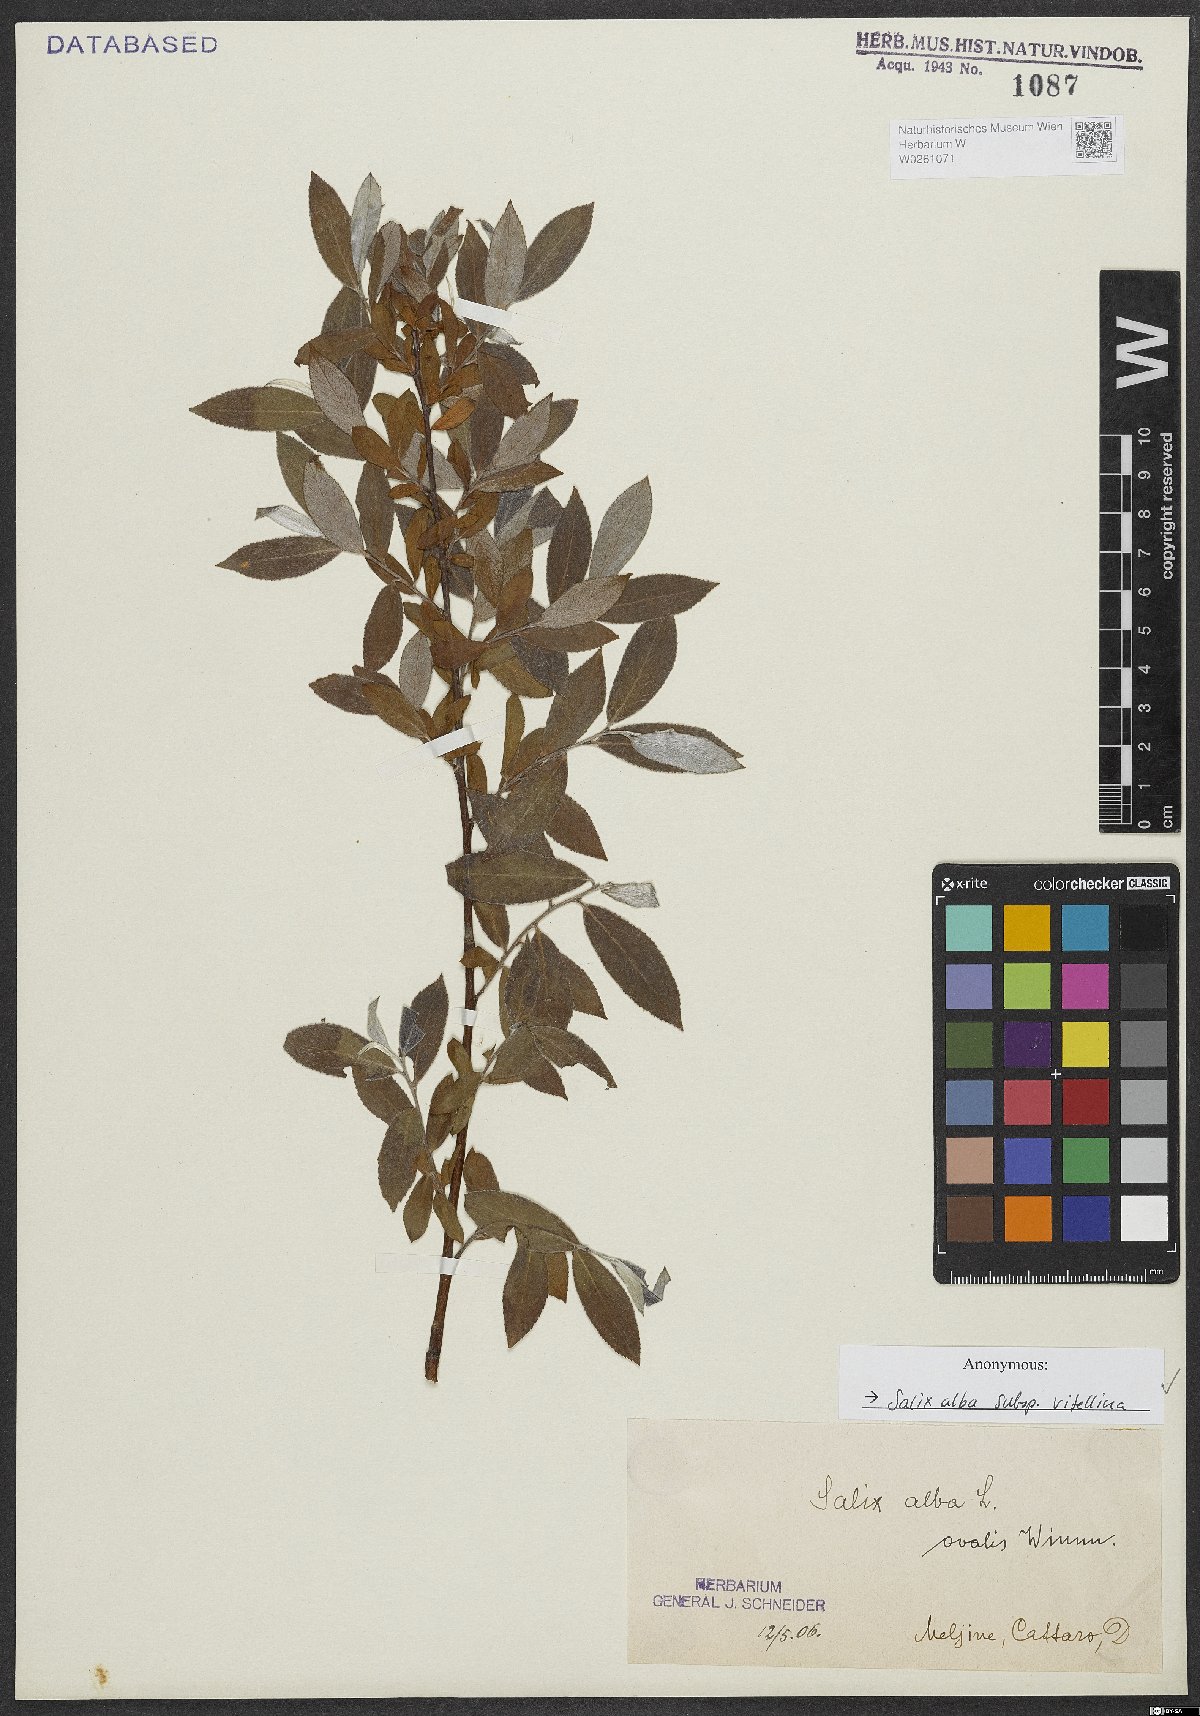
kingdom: Plantae
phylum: Tracheophyta
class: Magnoliopsida
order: Malpighiales
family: Salicaceae
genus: Salix
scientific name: Salix alba
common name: White willow
